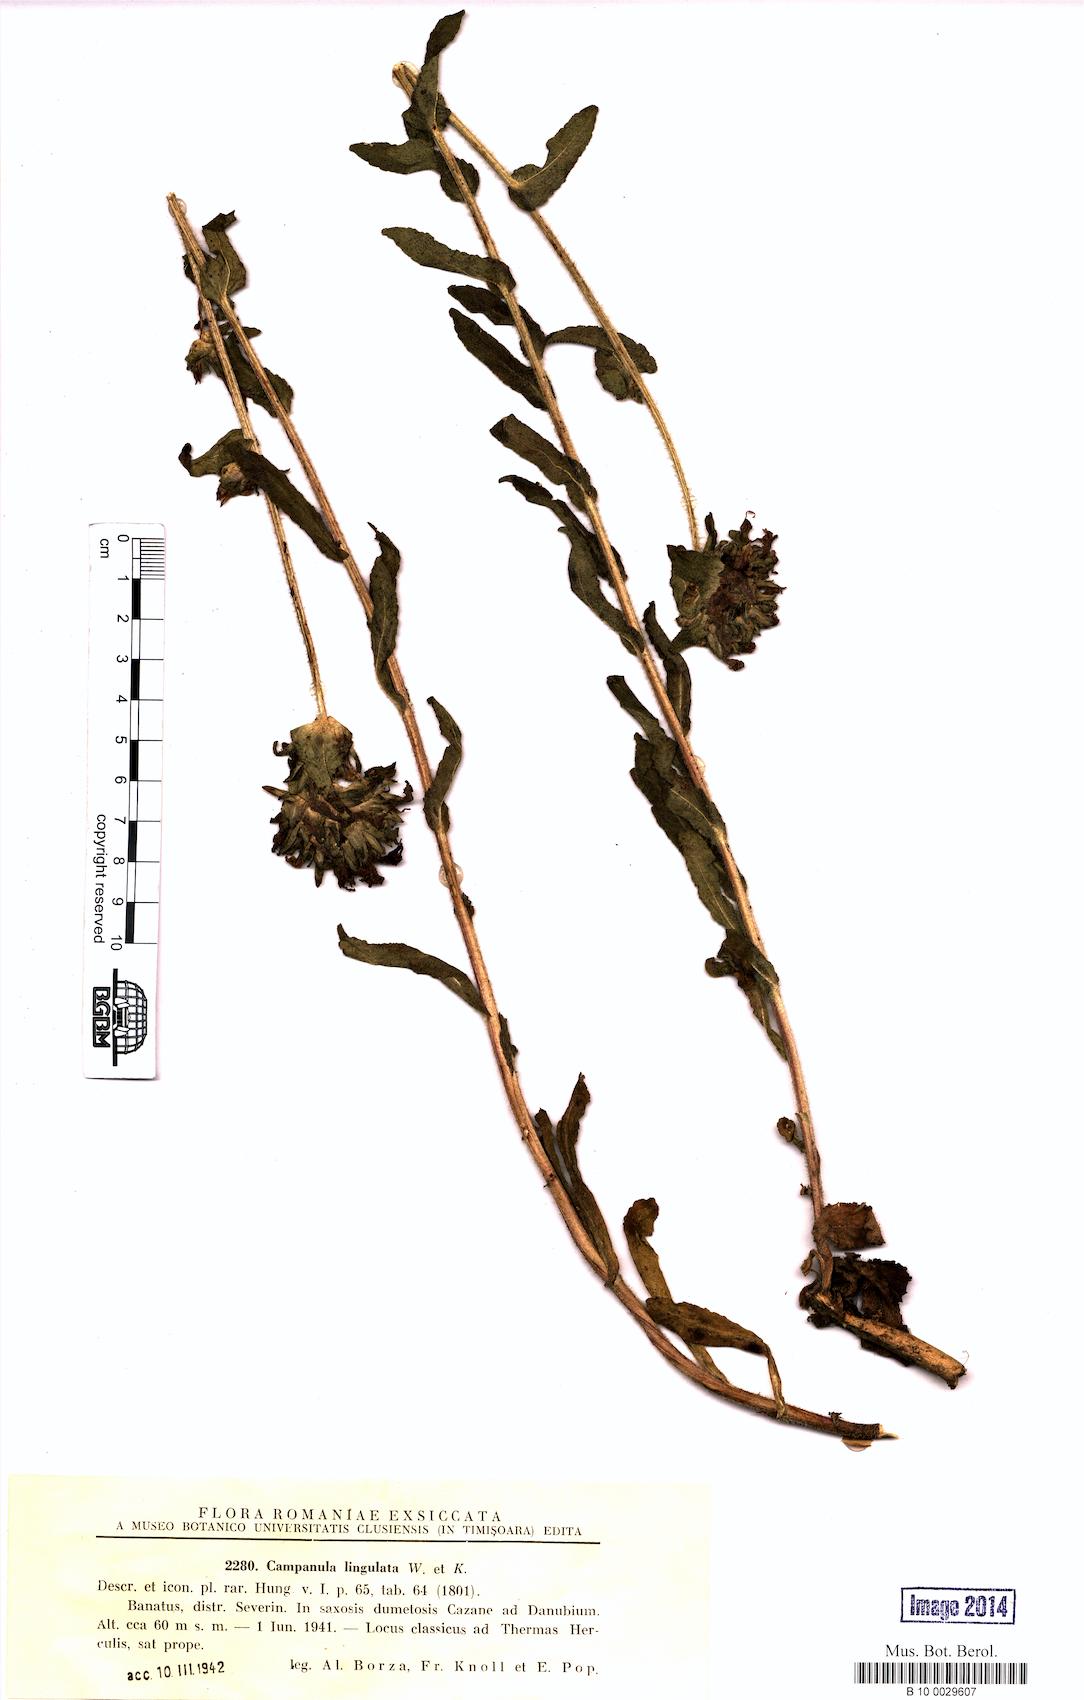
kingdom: Plantae
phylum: Tracheophyta
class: Magnoliopsida
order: Asterales
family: Campanulaceae
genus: Campanula
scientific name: Campanula lingulata
